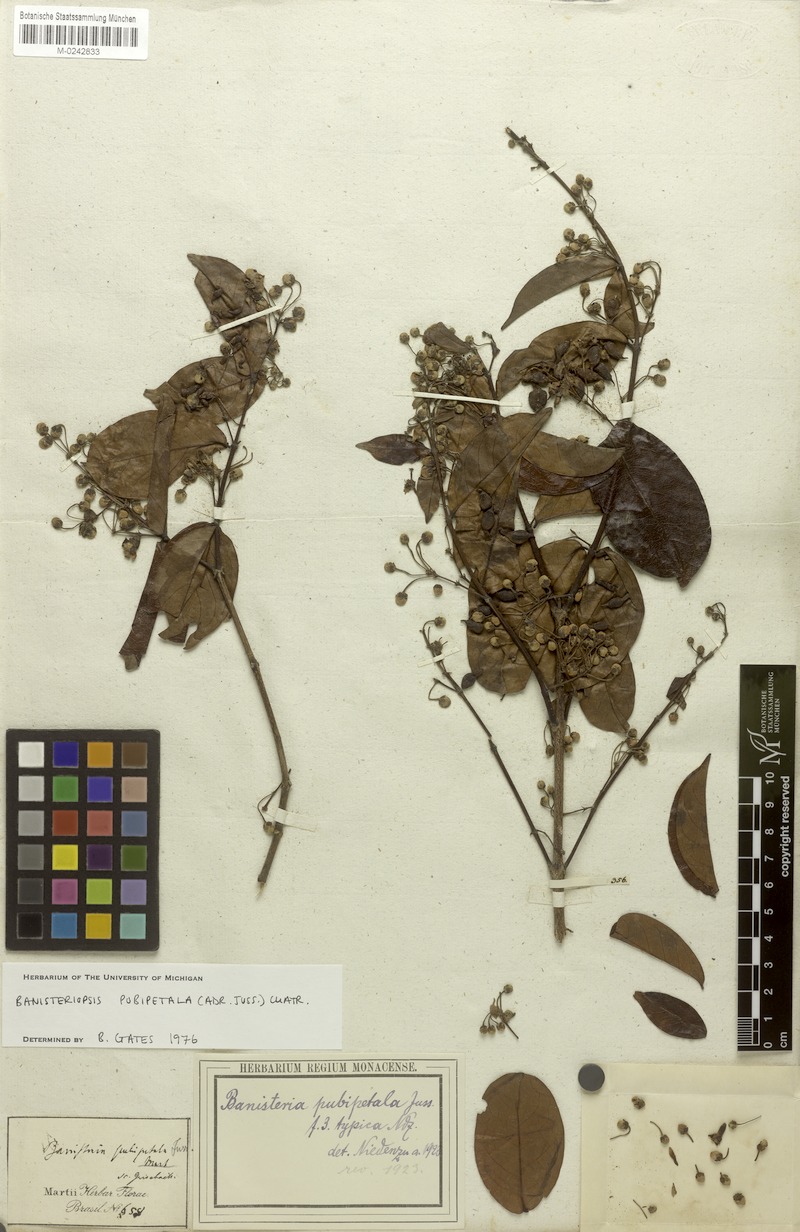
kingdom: Plantae
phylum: Tracheophyta
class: Magnoliopsida
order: Malpighiales
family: Malpighiaceae
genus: Diplopterys
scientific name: Diplopterys pubipetala
